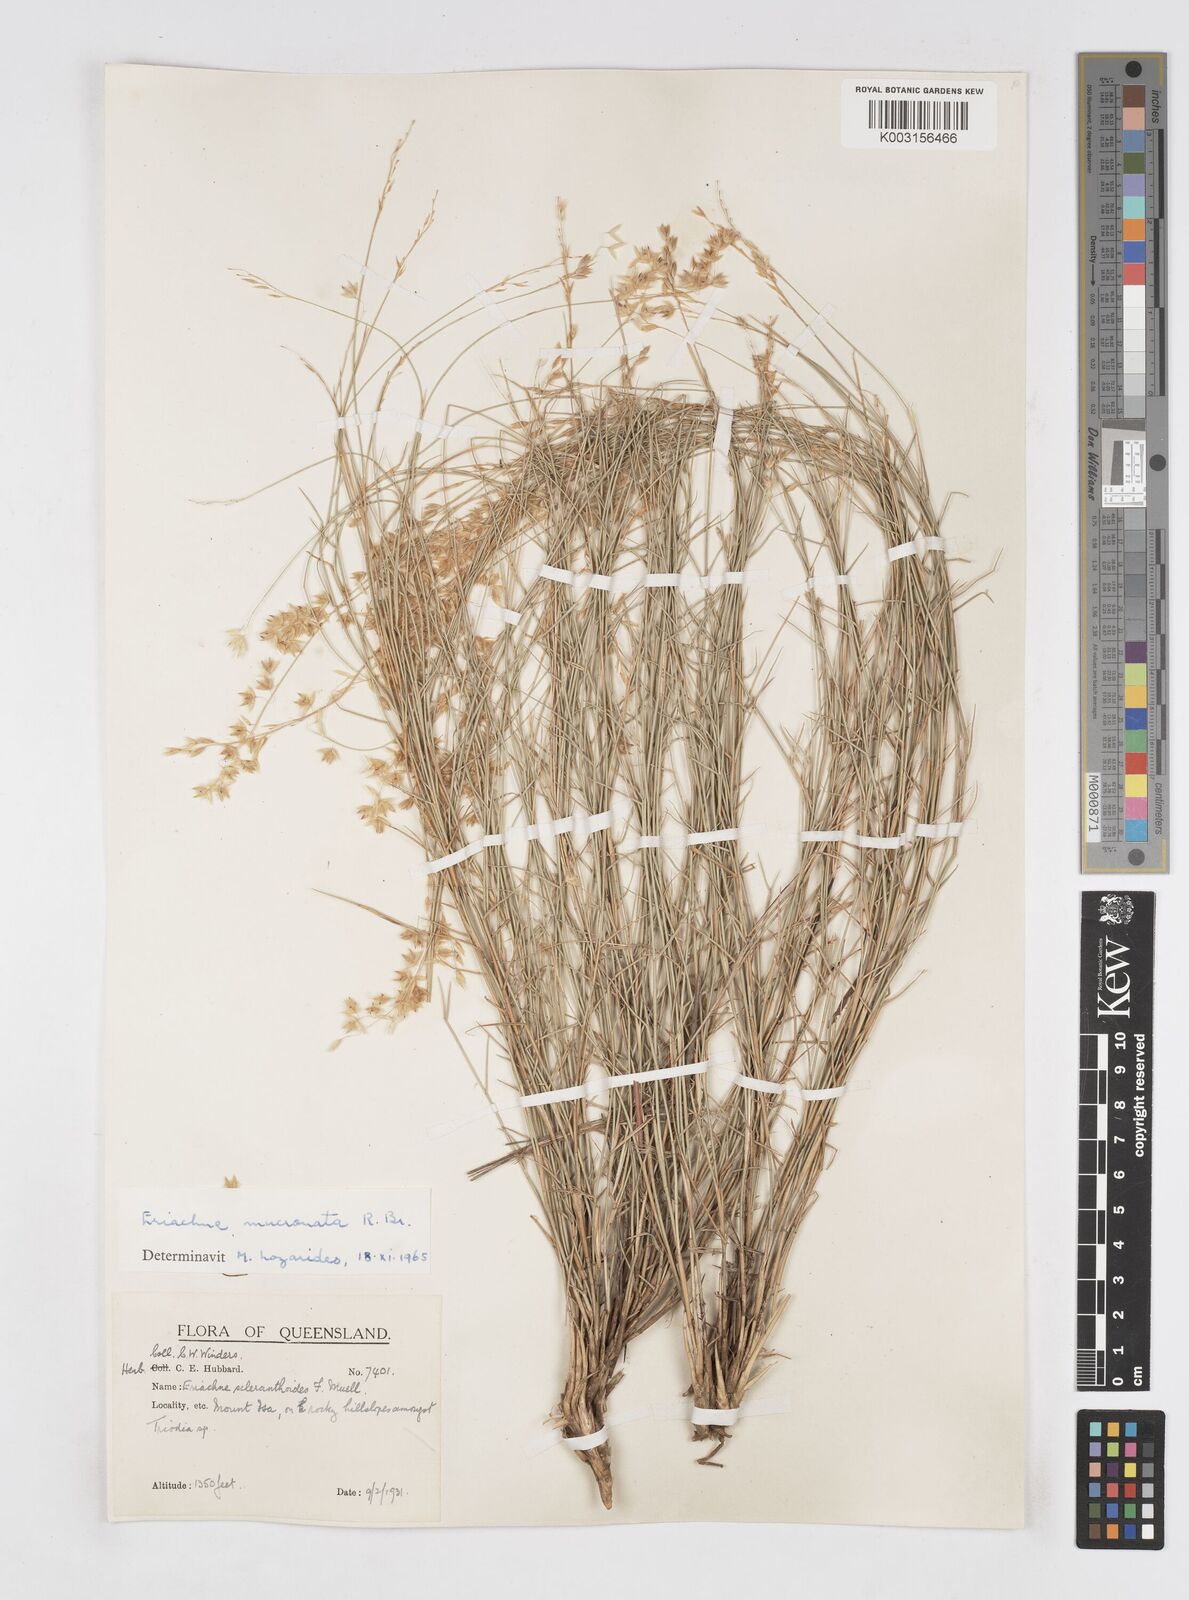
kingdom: Plantae
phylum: Tracheophyta
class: Liliopsida
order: Poales
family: Poaceae
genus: Eriachne
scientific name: Eriachne mucronata
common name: Mountain wanderrie grass
